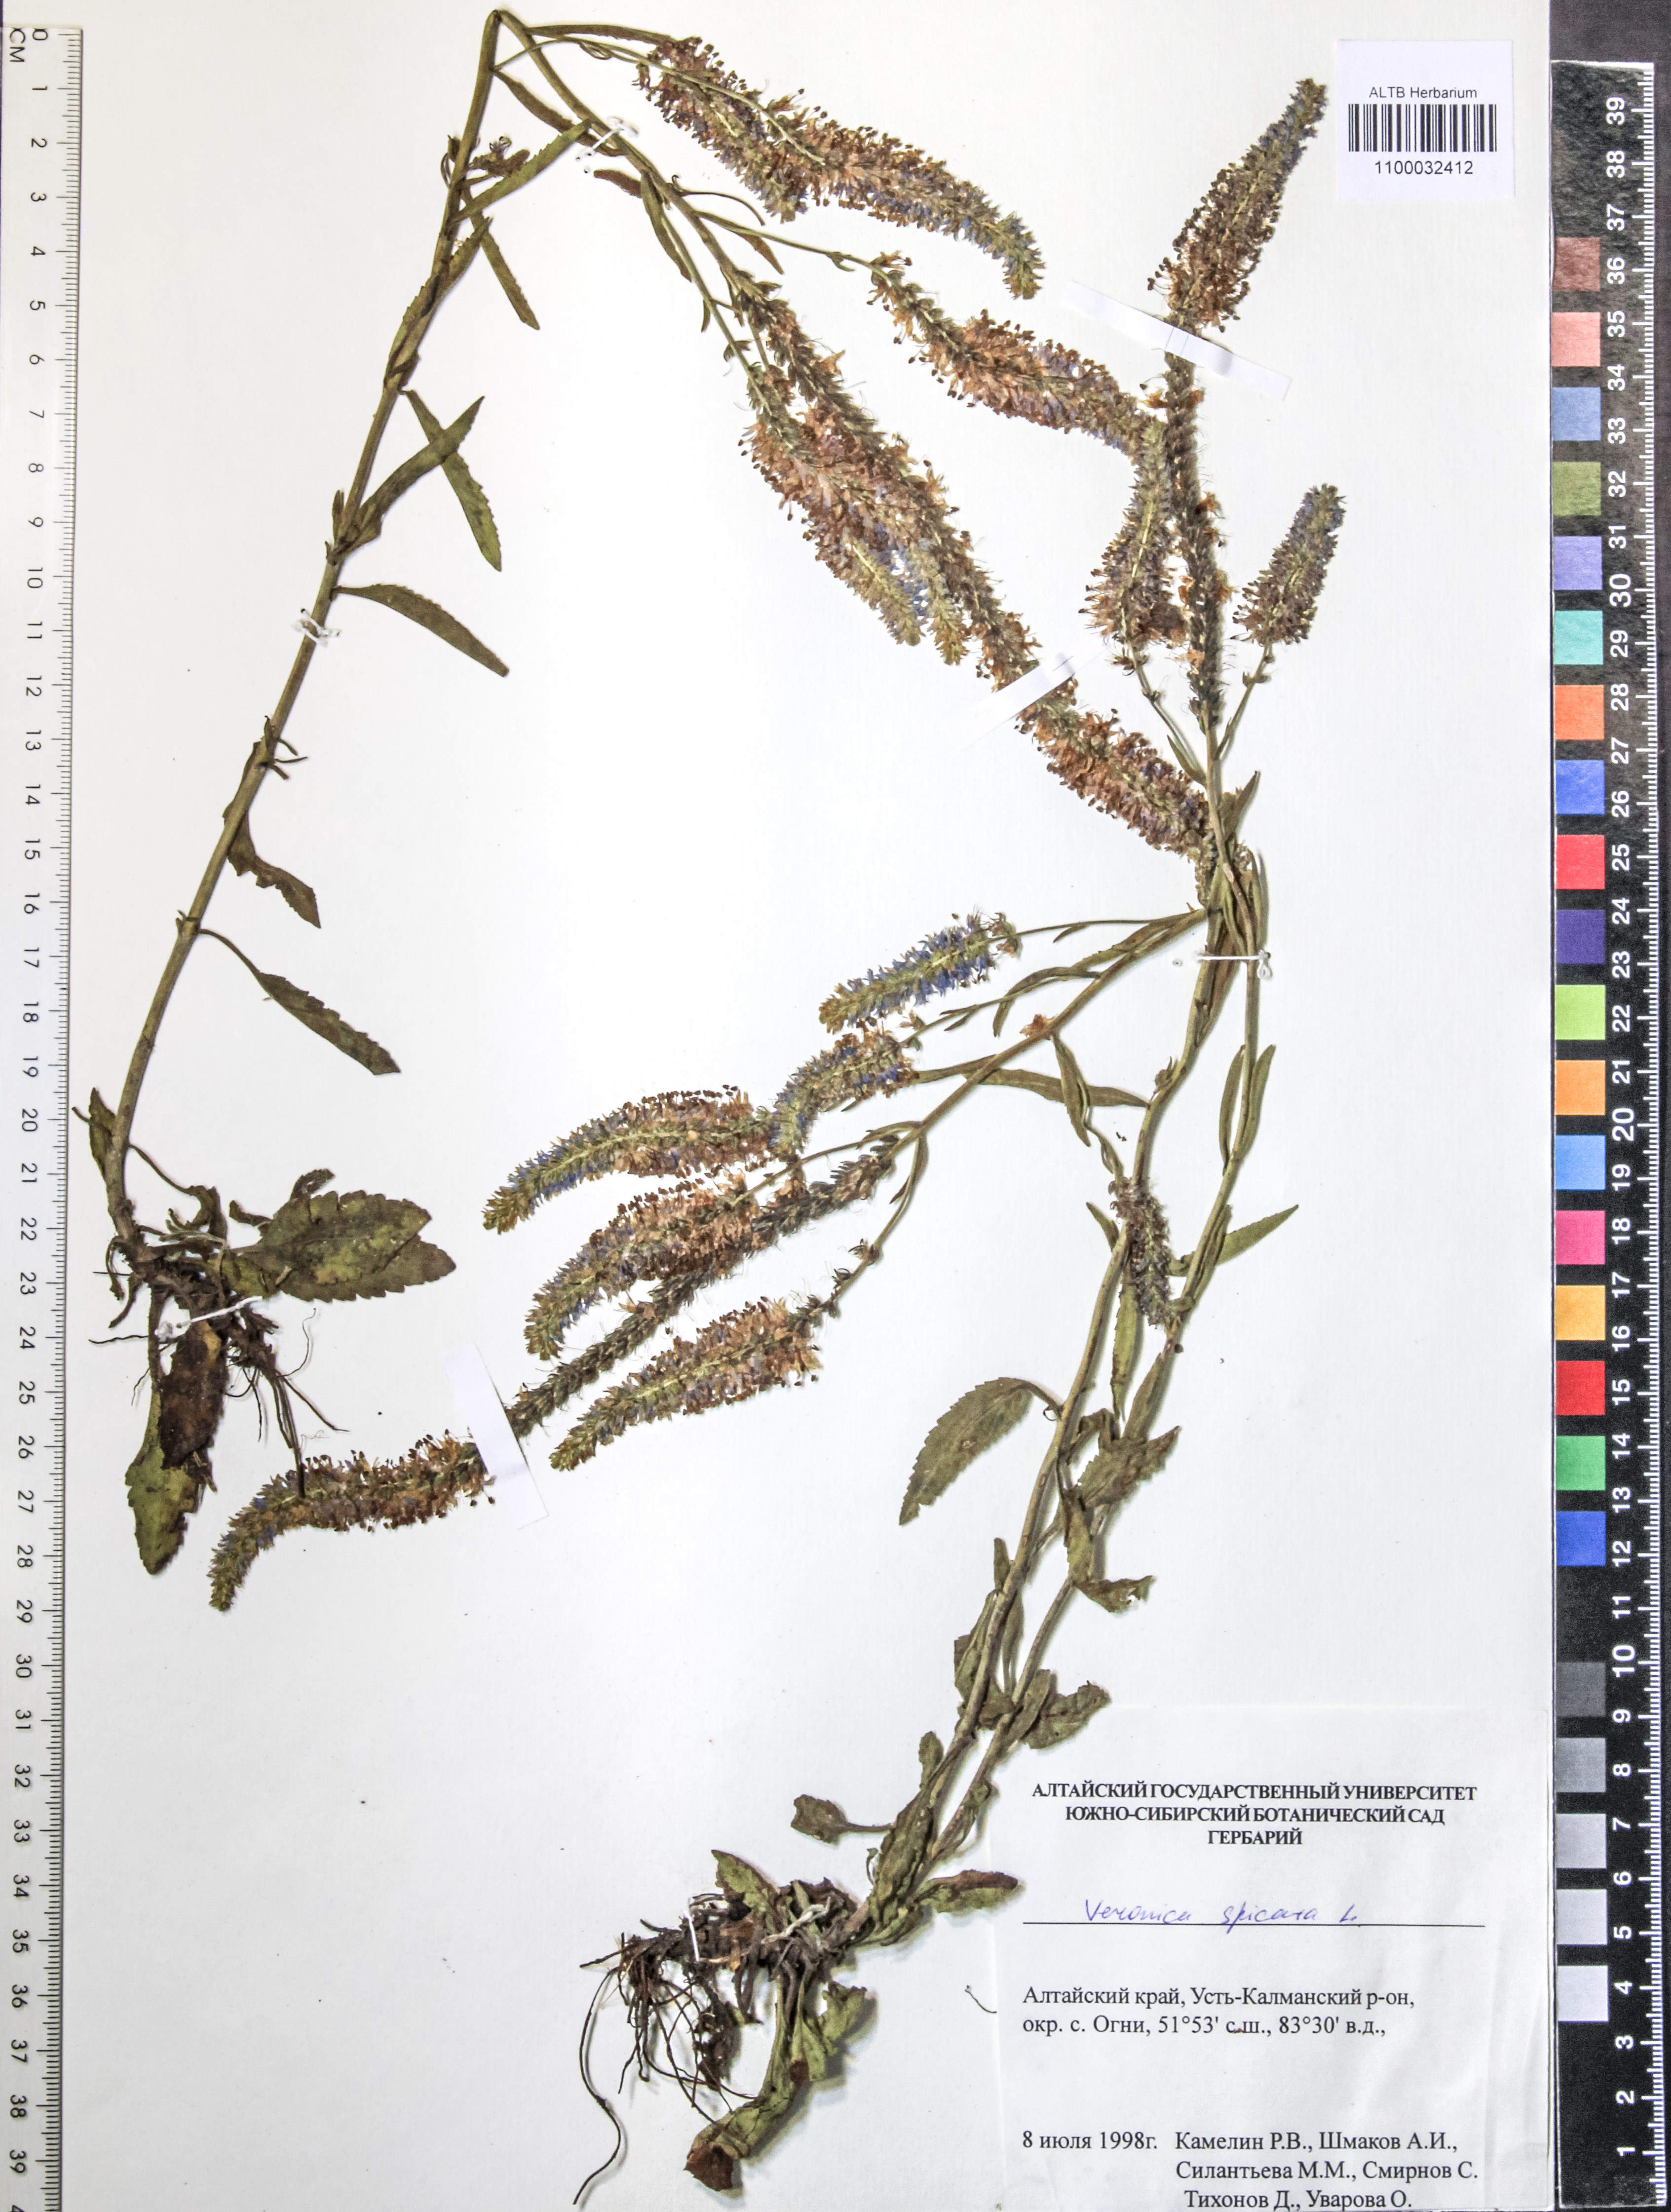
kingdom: Plantae
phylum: Tracheophyta
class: Magnoliopsida
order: Lamiales
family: Plantaginaceae
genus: Veronica
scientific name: Veronica spicata
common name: Spiked speedwell
